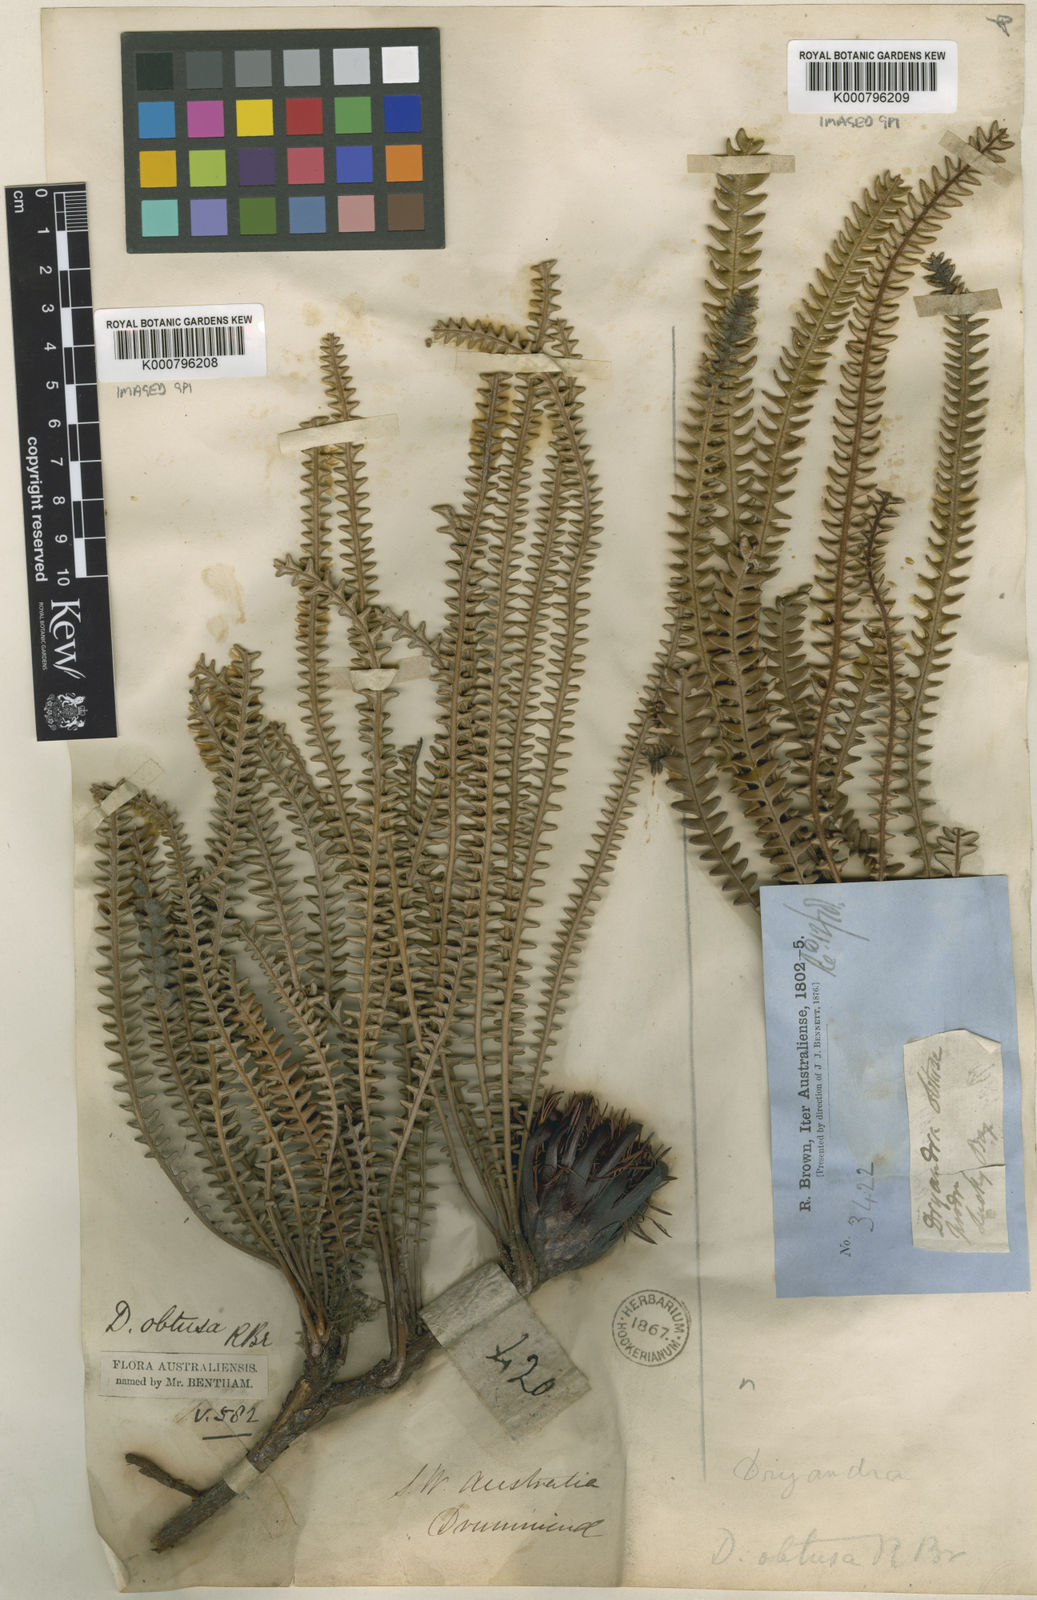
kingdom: Plantae
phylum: Tracheophyta
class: Magnoliopsida
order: Proteales
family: Proteaceae
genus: Banksia
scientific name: Banksia obtusa
